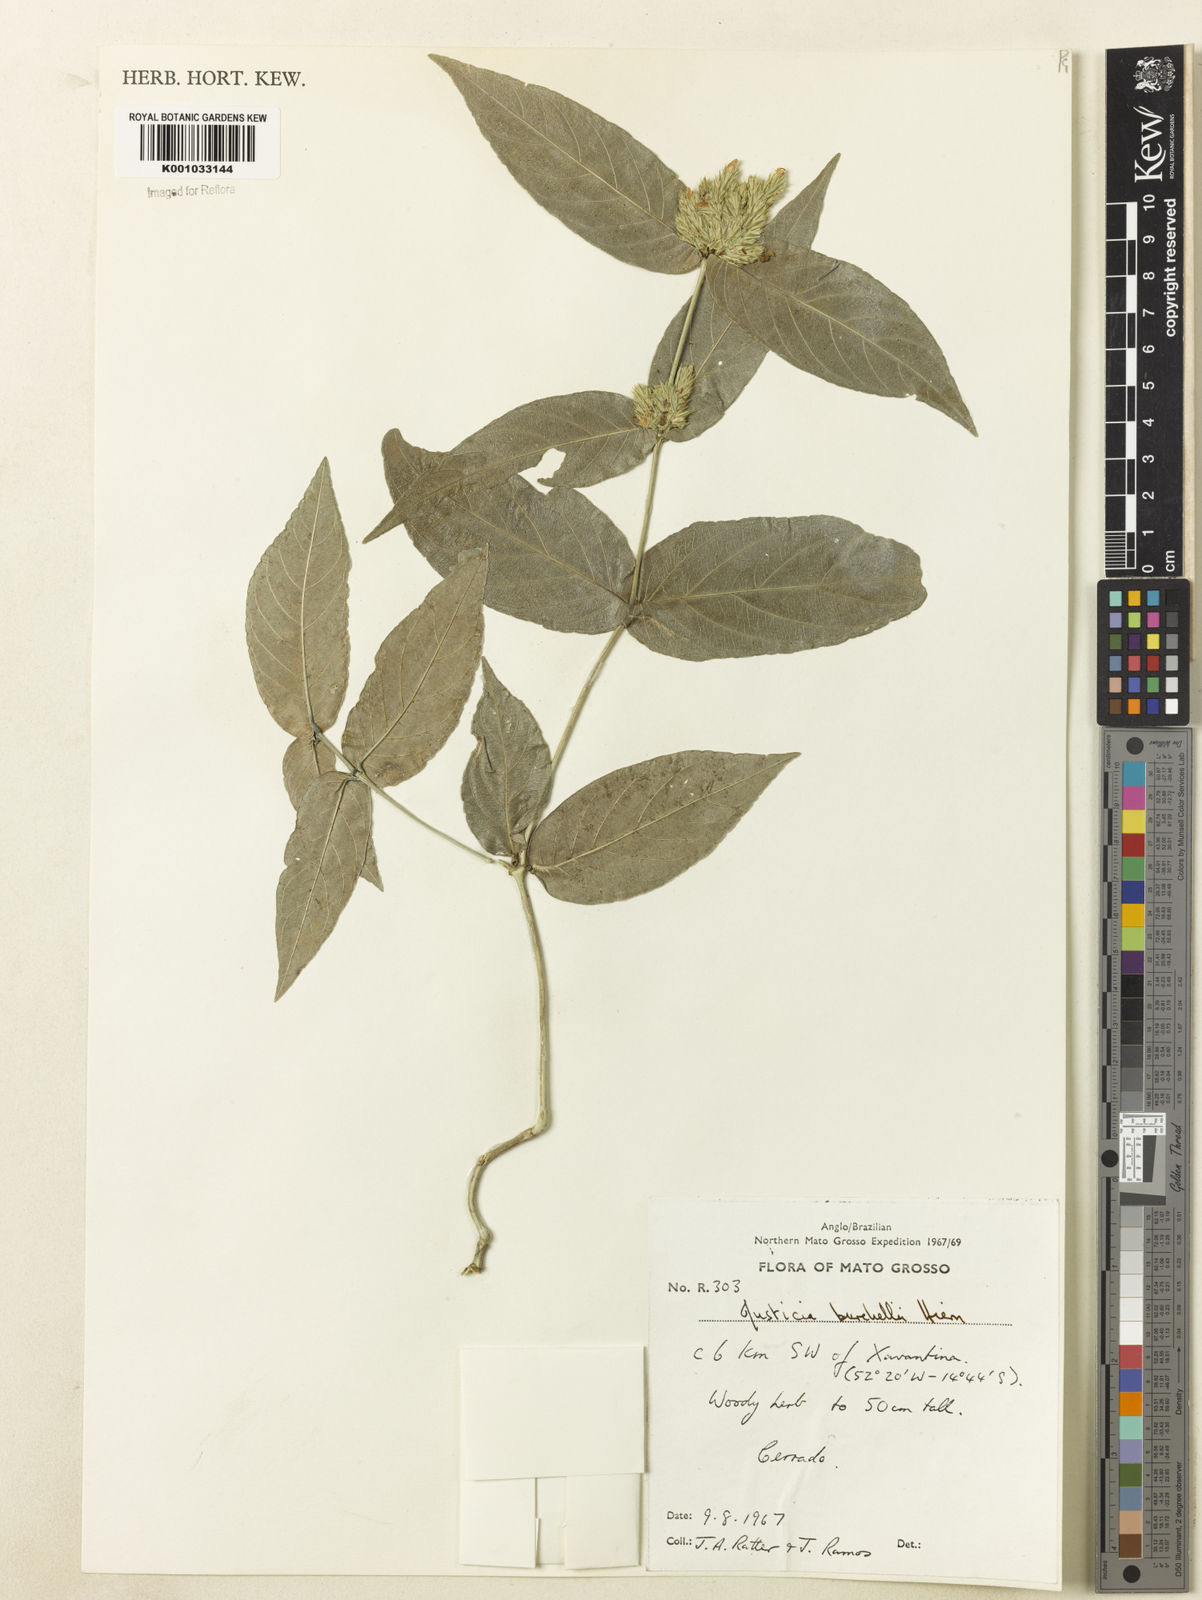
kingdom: Plantae
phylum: Tracheophyta
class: Magnoliopsida
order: Lamiales
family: Acanthaceae
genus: Justicia
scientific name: Justicia burchellii
